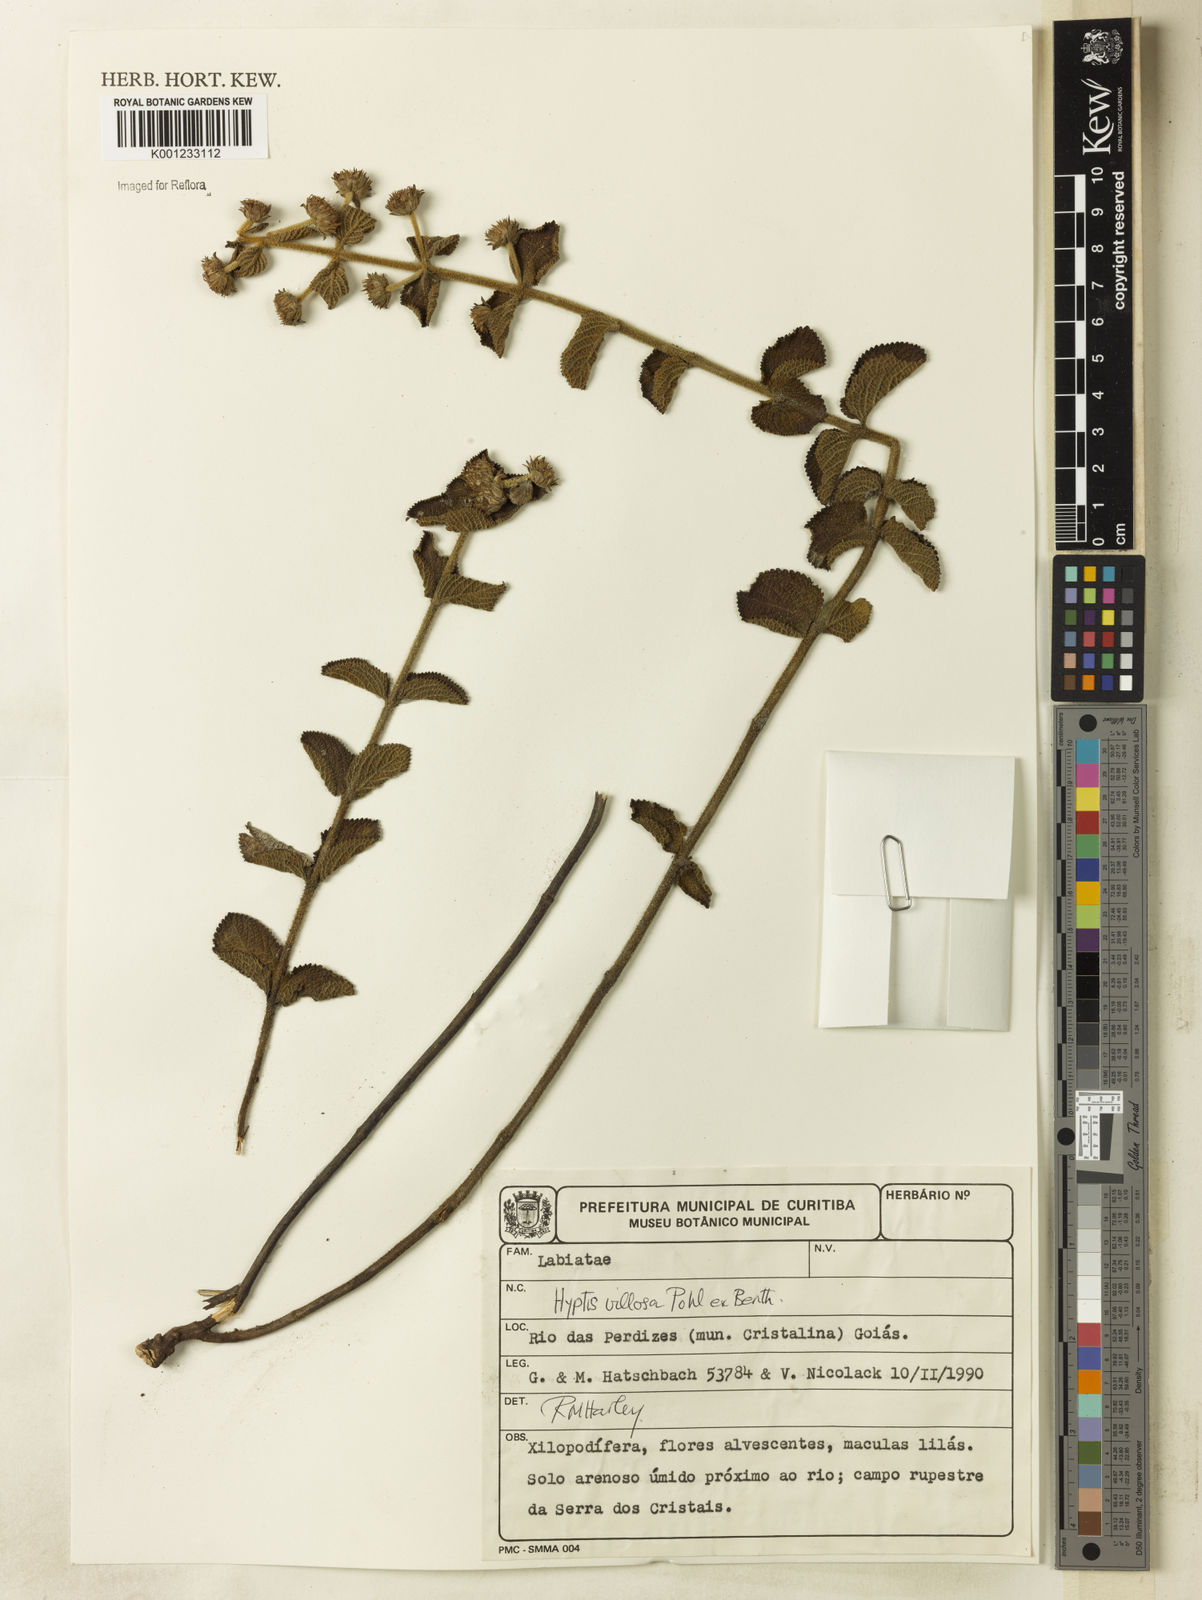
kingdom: Plantae
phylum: Tracheophyta
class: Magnoliopsida
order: Lamiales
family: Lamiaceae
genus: Hyptis
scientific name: Hyptis villosa
